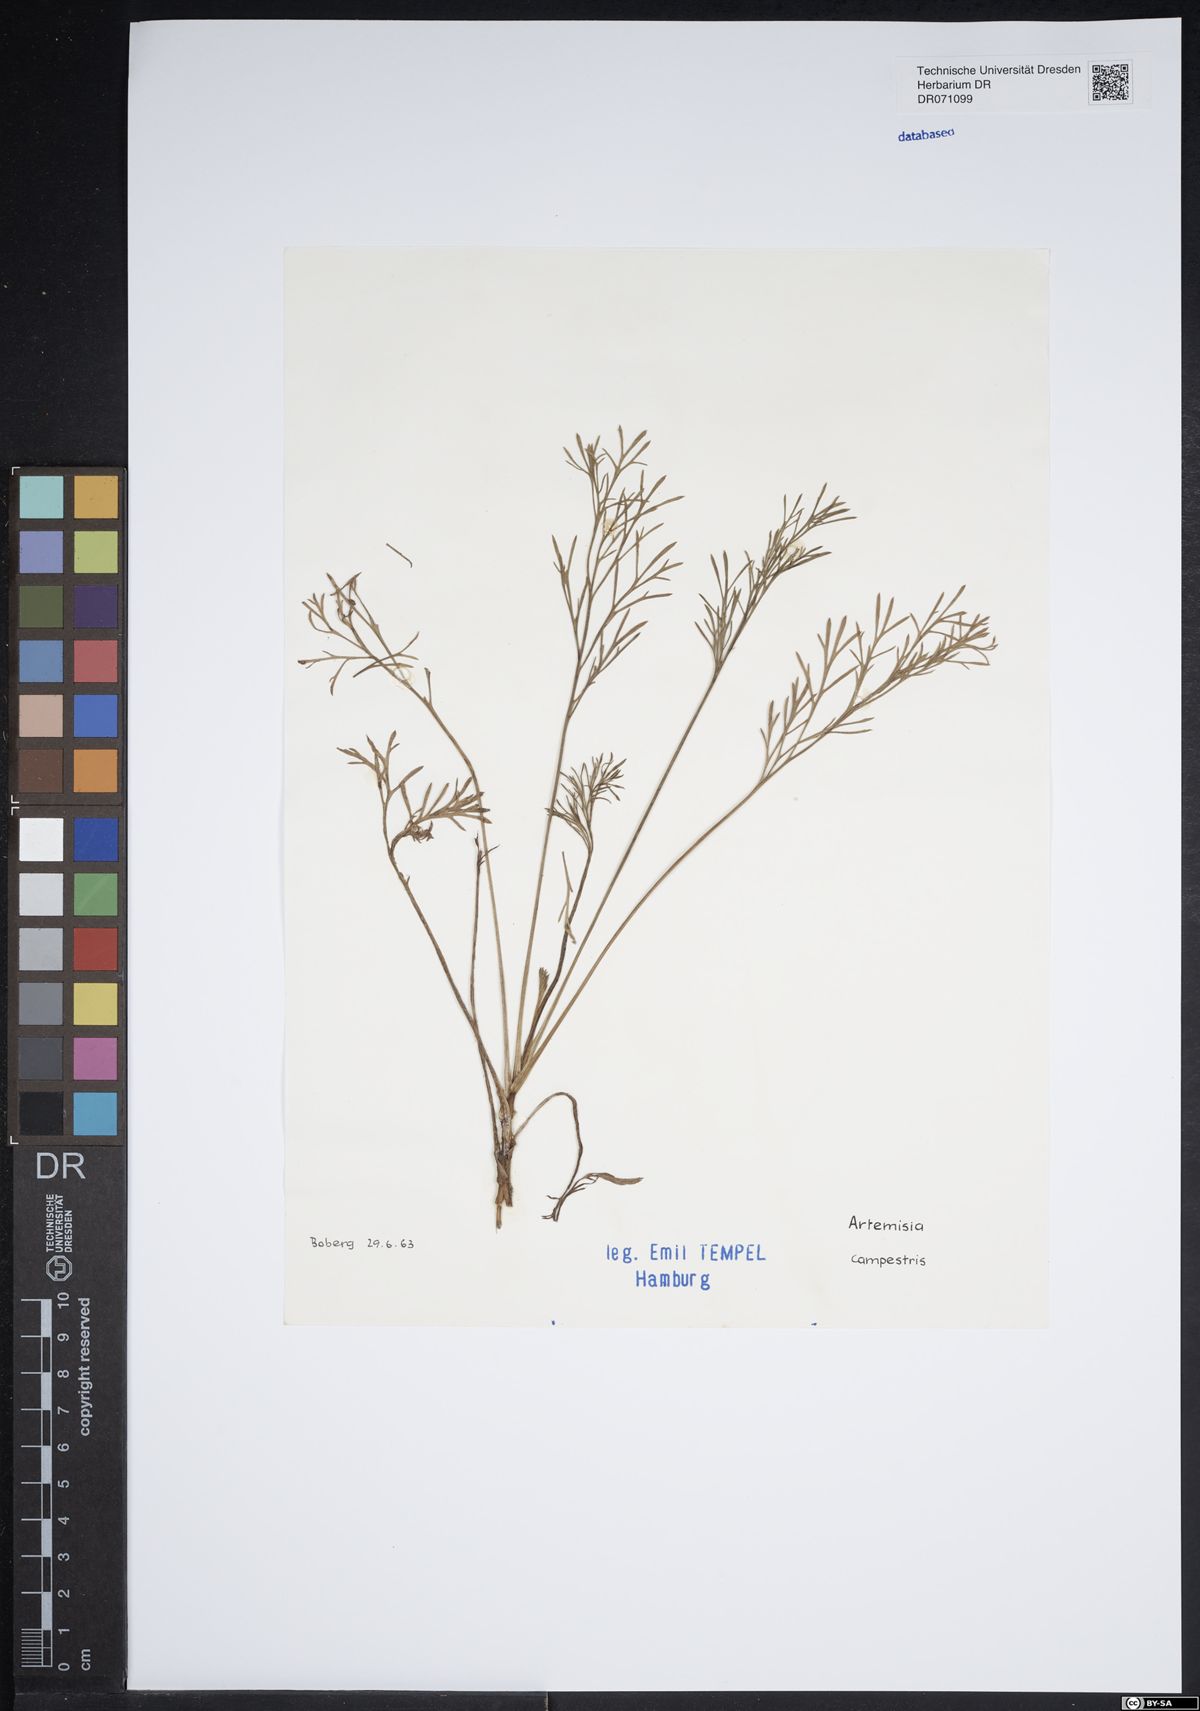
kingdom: Plantae
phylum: Tracheophyta
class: Magnoliopsida
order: Asterales
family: Asteraceae
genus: Artemisia
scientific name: Artemisia campestris
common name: Field wormwood
